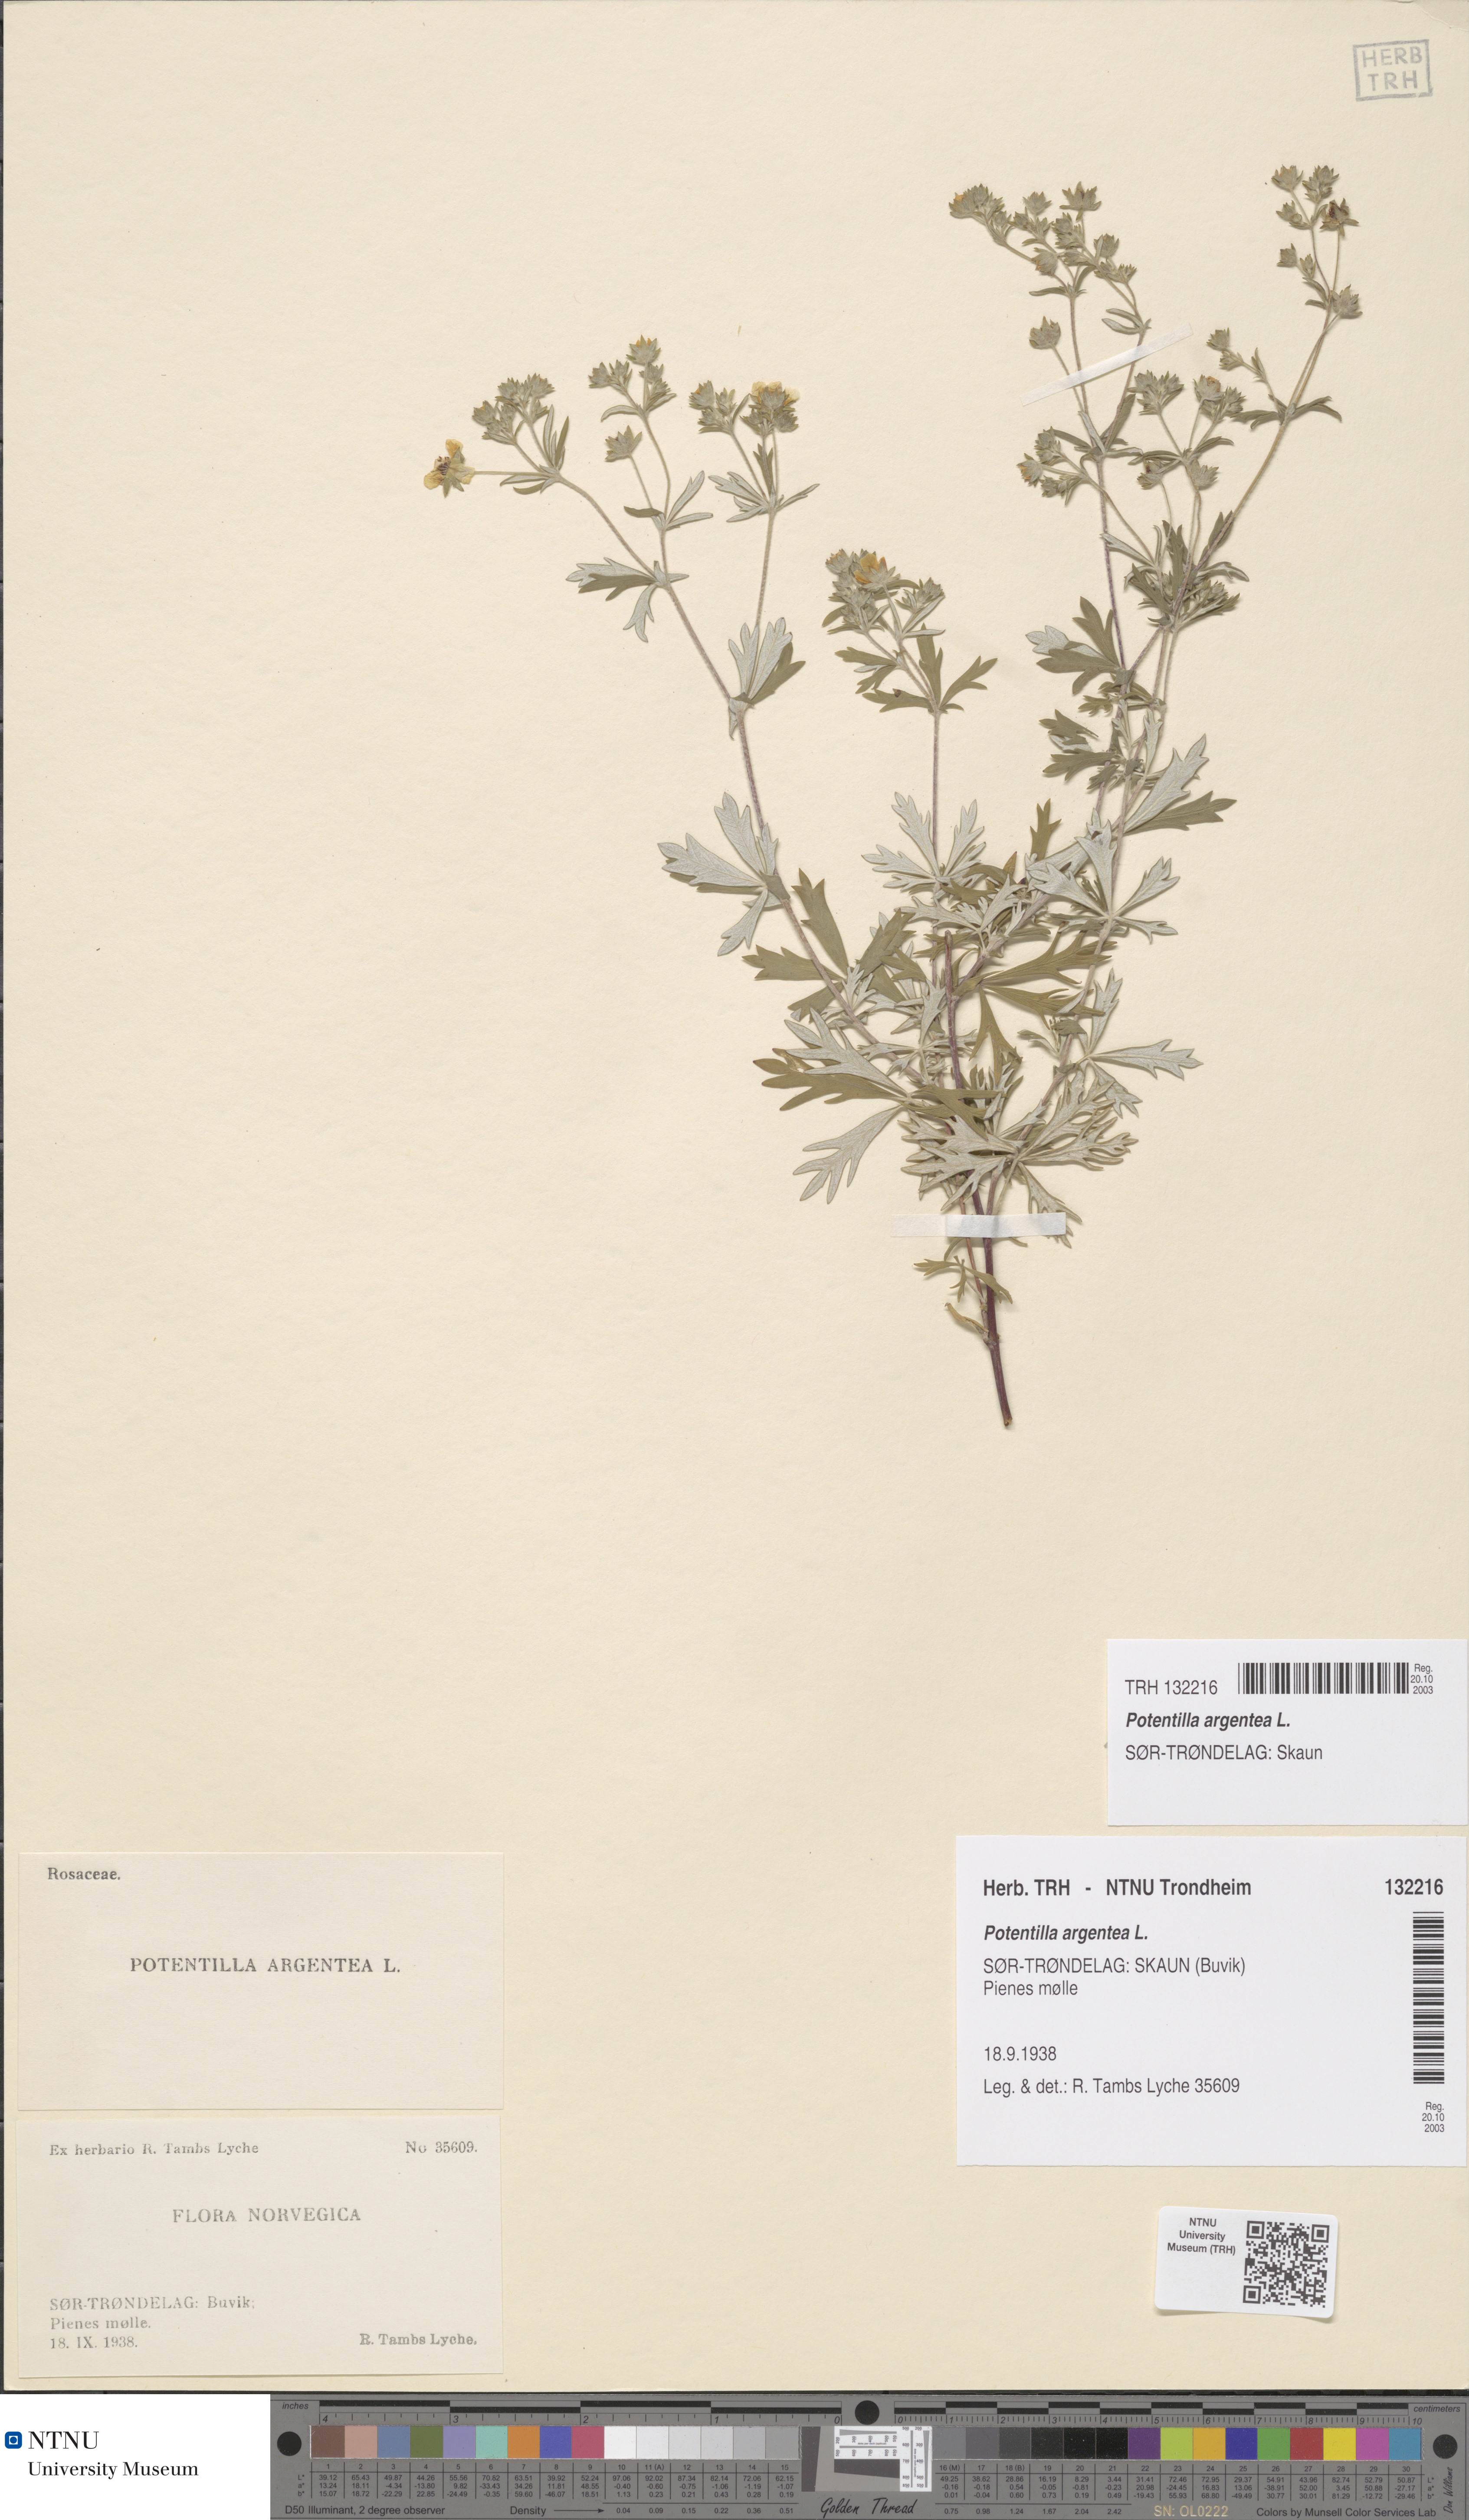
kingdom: Plantae
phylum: Tracheophyta
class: Magnoliopsida
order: Rosales
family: Rosaceae
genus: Potentilla
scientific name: Potentilla argentea
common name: Hoary cinquefoil
